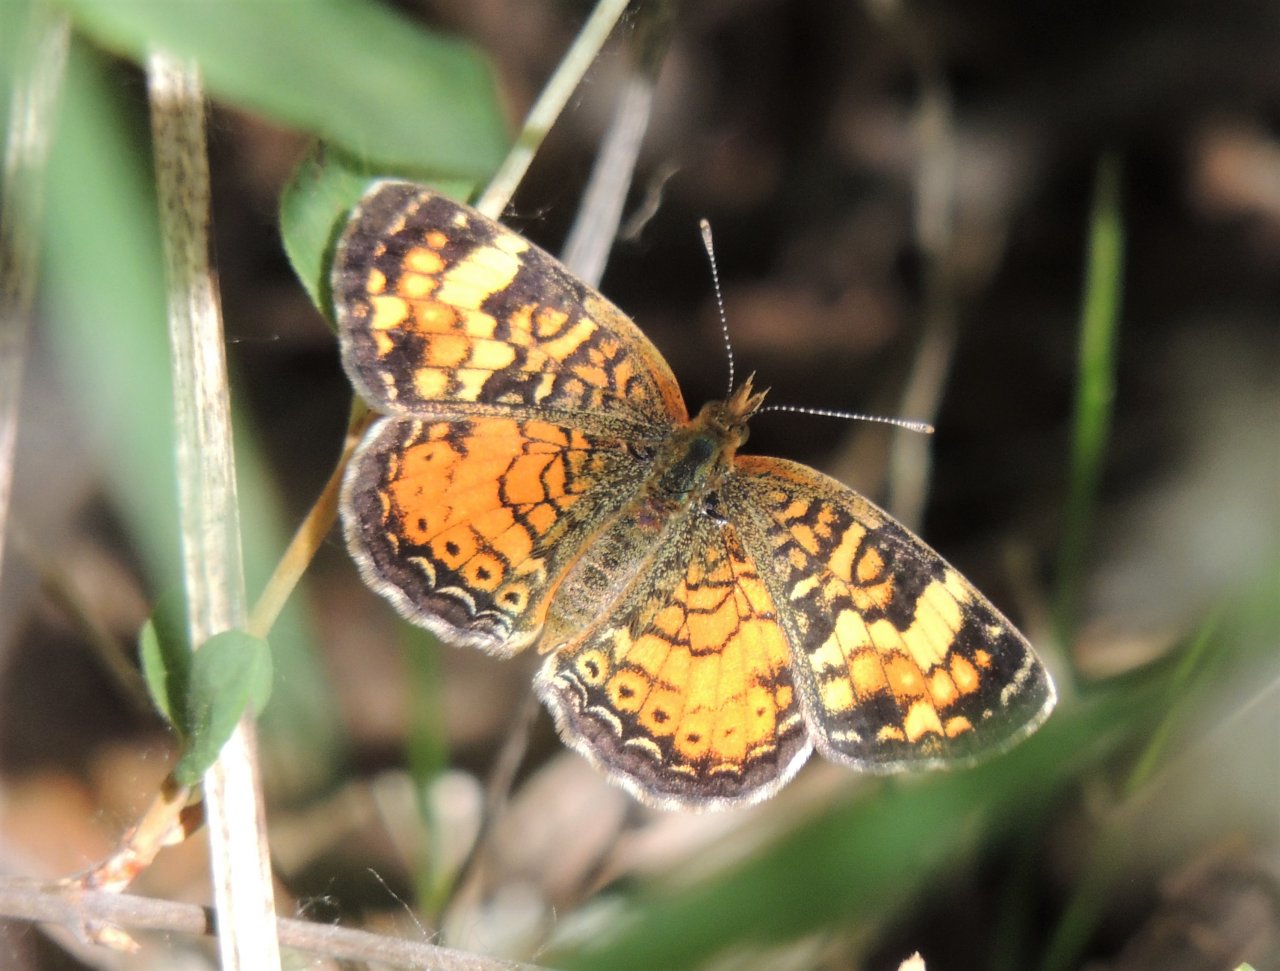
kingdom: Animalia
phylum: Arthropoda
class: Insecta
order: Lepidoptera
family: Nymphalidae
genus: Phyciodes
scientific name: Phyciodes tharos
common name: Field Crescent
